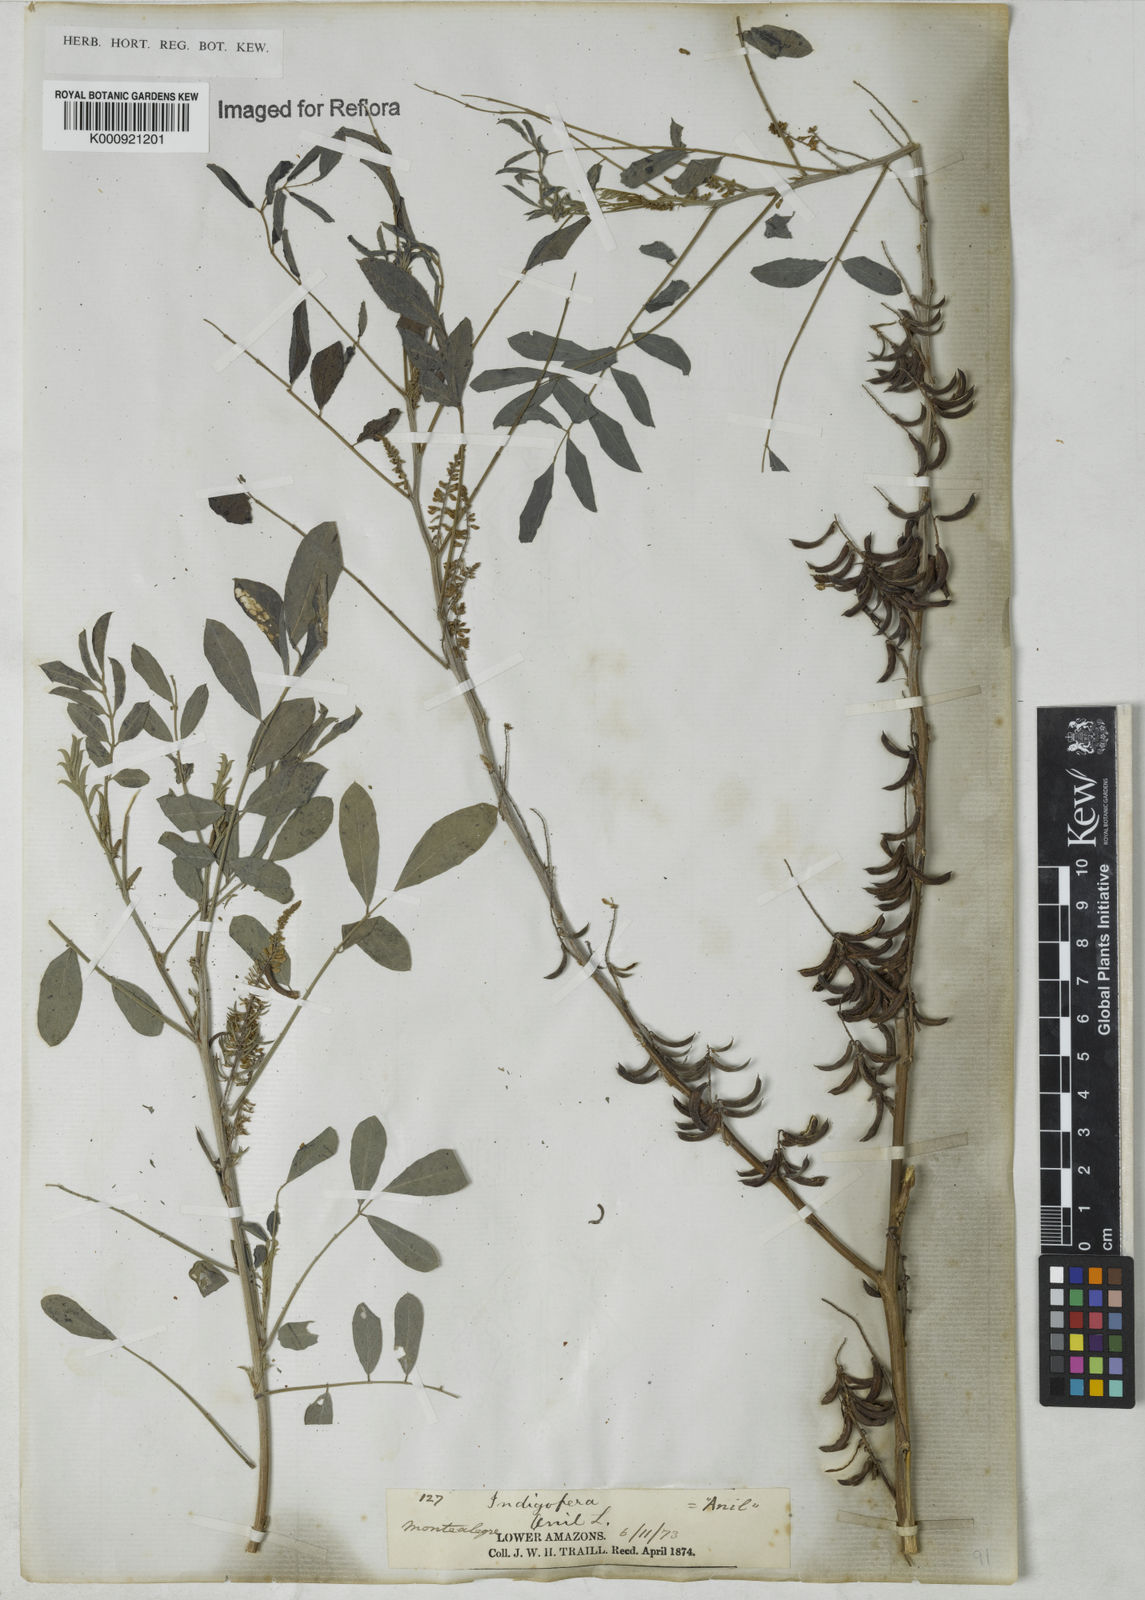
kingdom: Plantae
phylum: Tracheophyta
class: Magnoliopsida
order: Fabales
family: Fabaceae
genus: Indigofera
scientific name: Indigofera suffruticosa
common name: Anil de pasto
